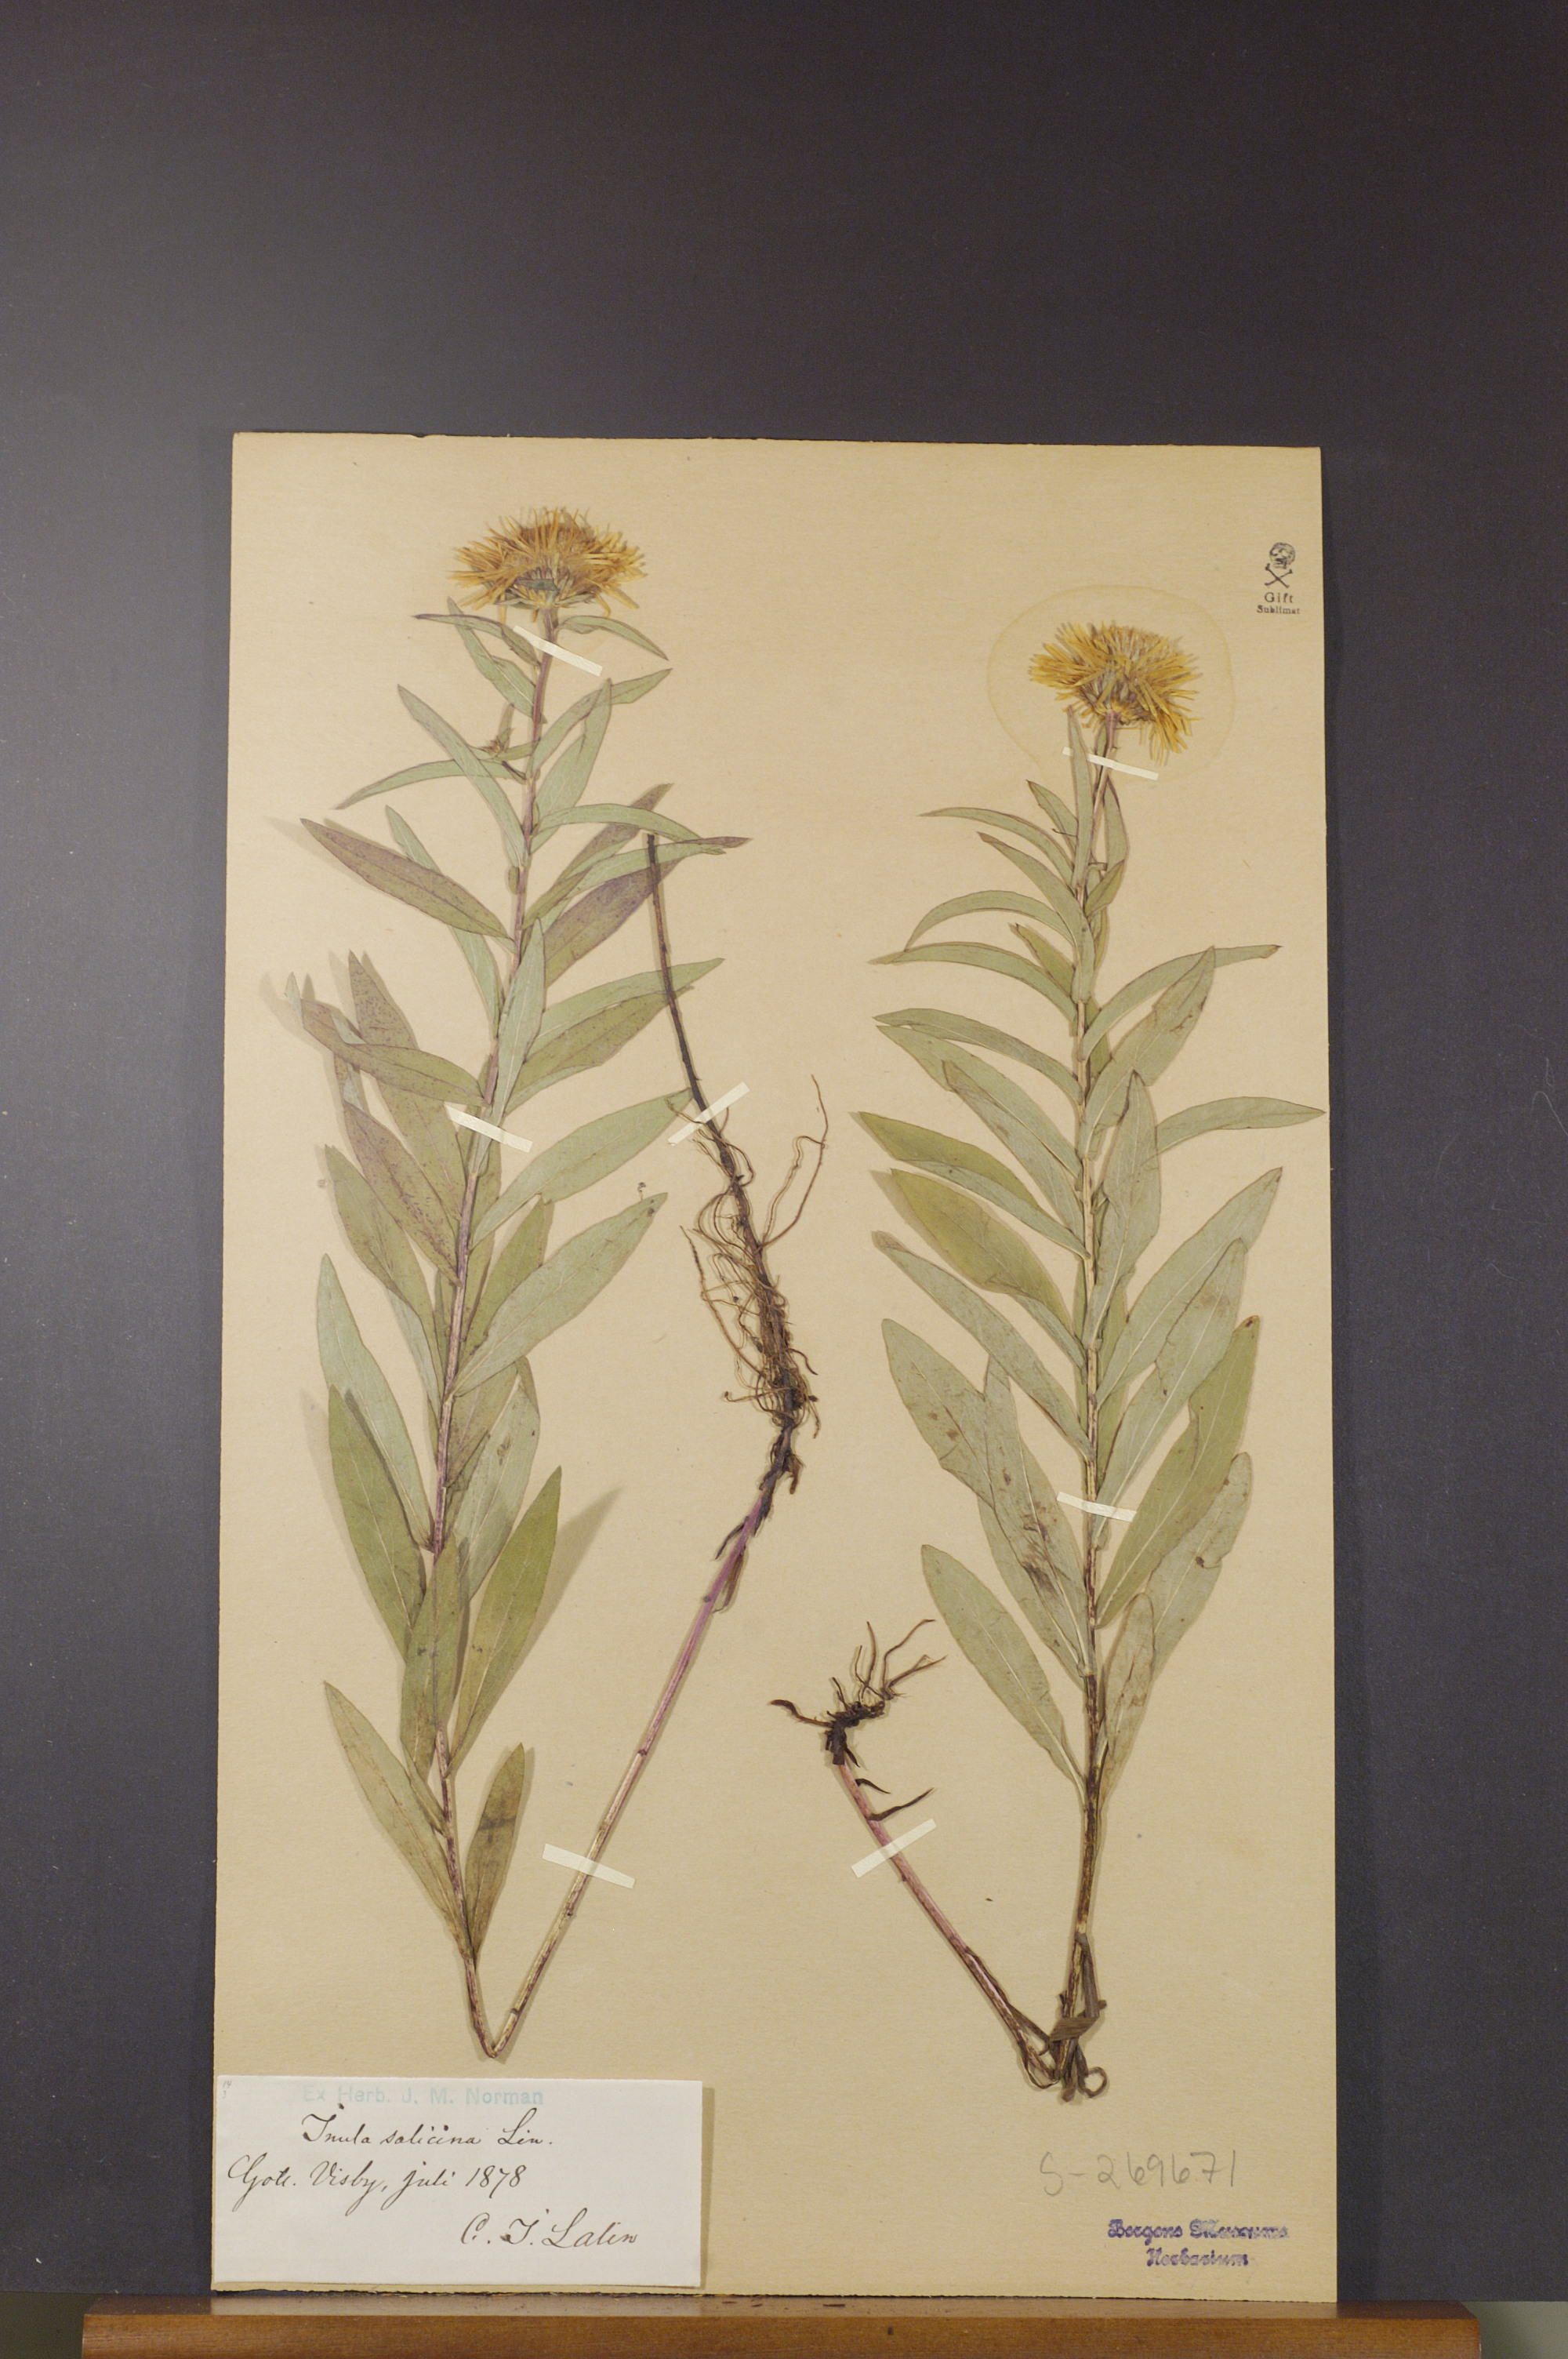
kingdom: Plantae
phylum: Tracheophyta
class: Magnoliopsida
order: Asterales
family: Asteraceae
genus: Pentanema
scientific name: Pentanema salicinum
